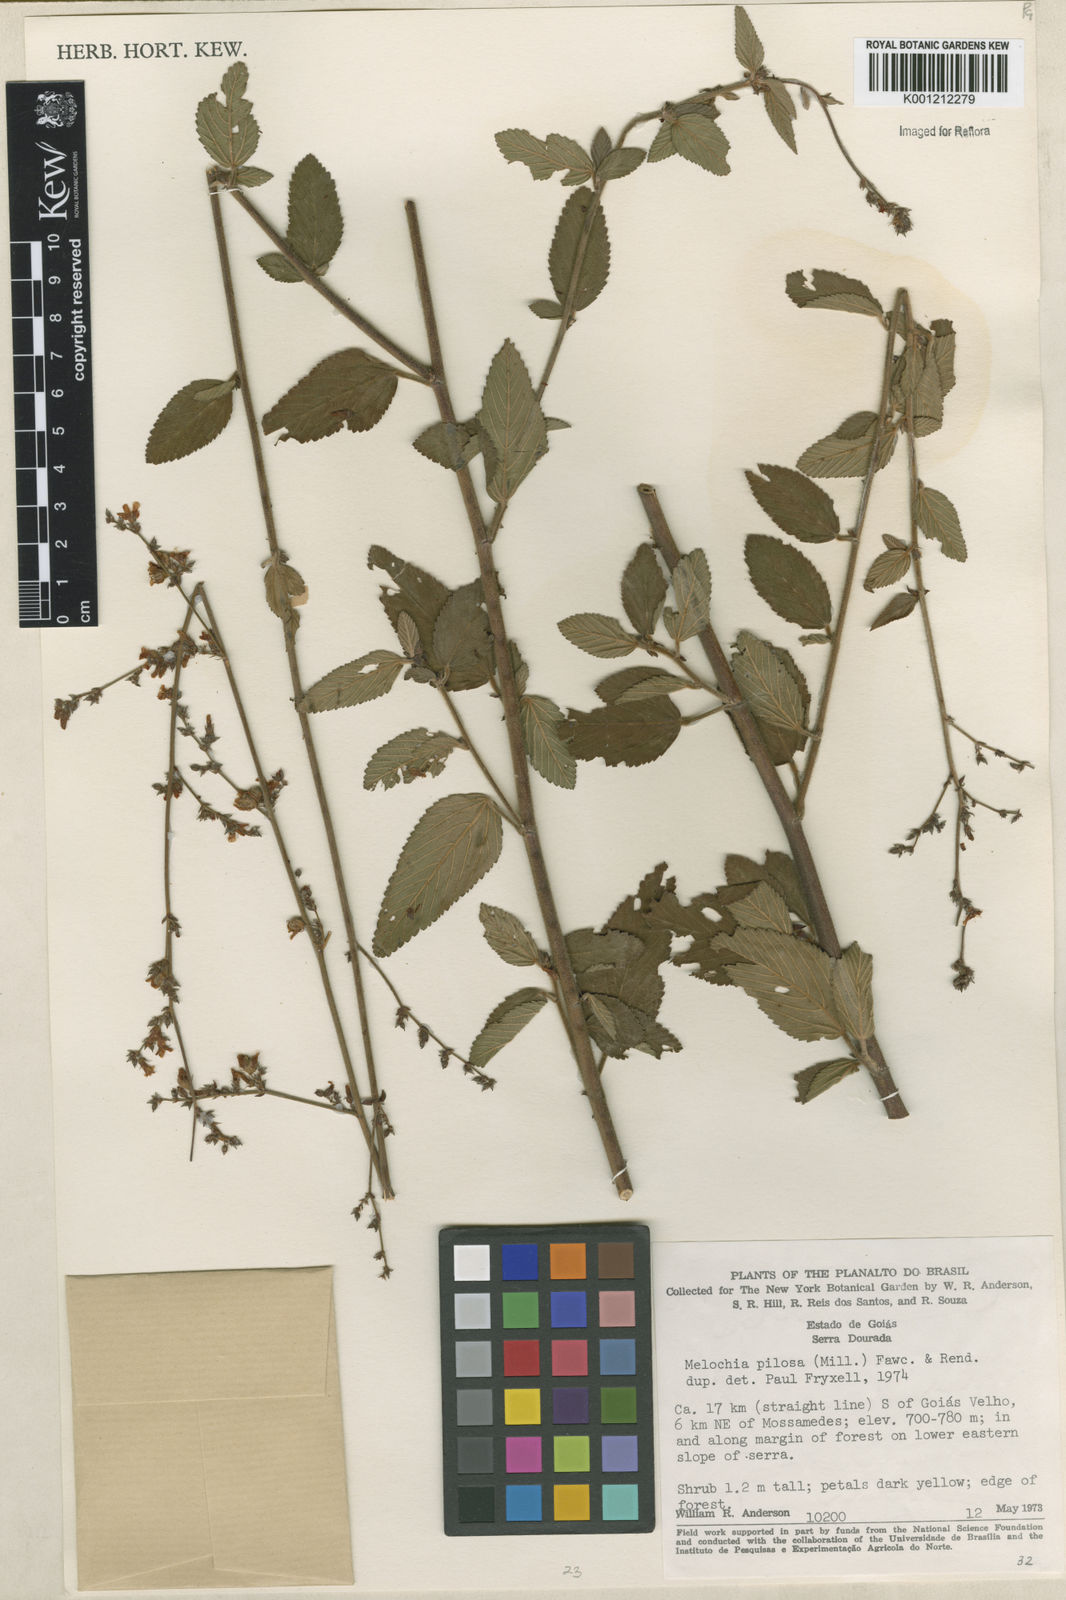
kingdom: Plantae
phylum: Tracheophyta
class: Magnoliopsida
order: Malvales
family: Malvaceae
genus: Melochia
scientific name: Melochia pilosa
